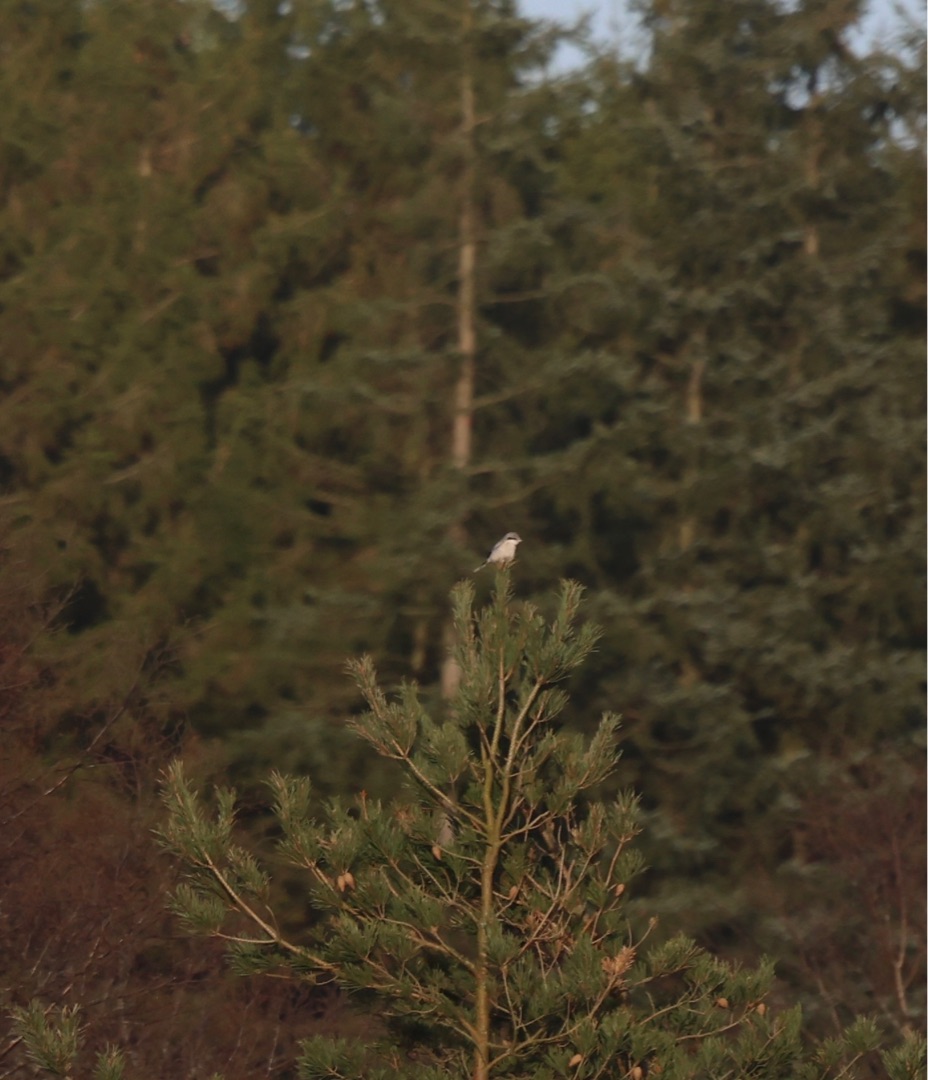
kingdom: Animalia
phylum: Chordata
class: Aves
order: Passeriformes
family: Laniidae
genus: Lanius
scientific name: Lanius excubitor
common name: Stor tornskade
